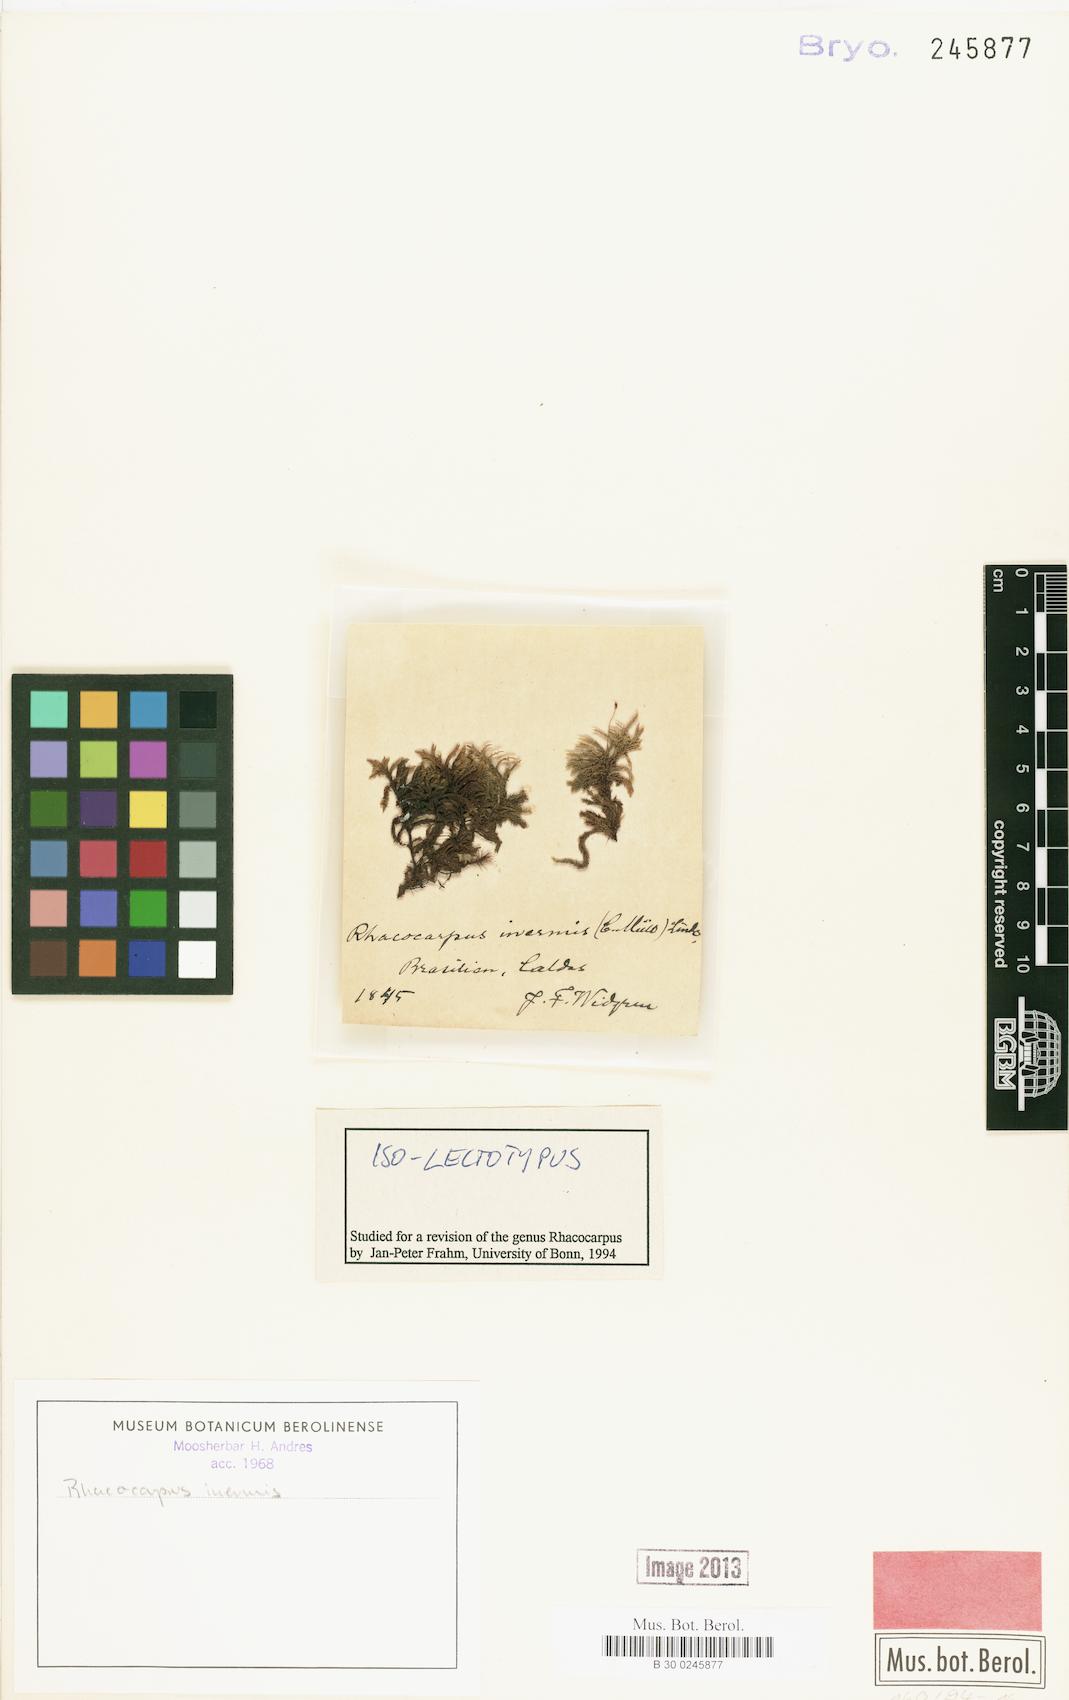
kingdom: Plantae
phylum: Bryophyta
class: Bryopsida
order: Hedwigiales
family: Hedwigiaceae
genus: Rhacocarpus
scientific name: Rhacocarpus inermis
